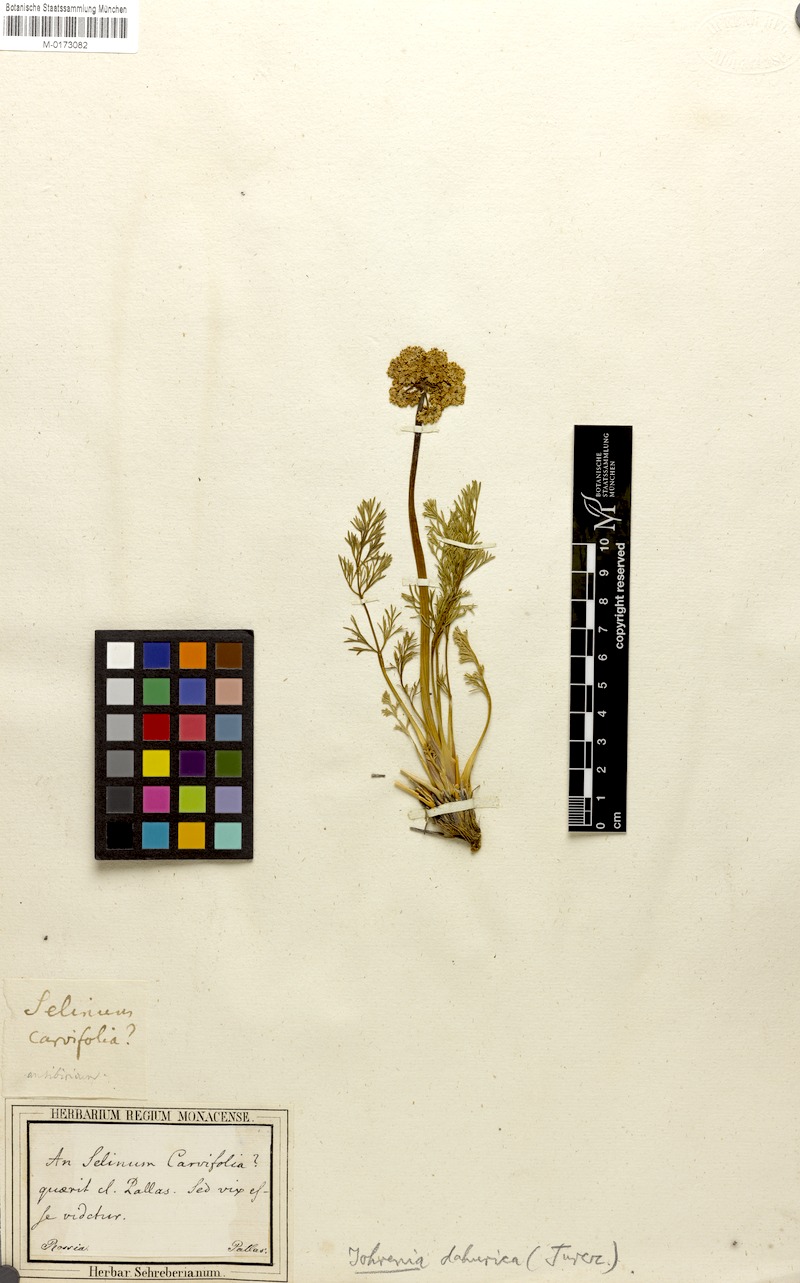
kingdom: Plantae
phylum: Tracheophyta
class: Magnoliopsida
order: Apiales
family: Apiaceae
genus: Phlojodicarpus
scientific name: Phlojodicarpus sibiricus
